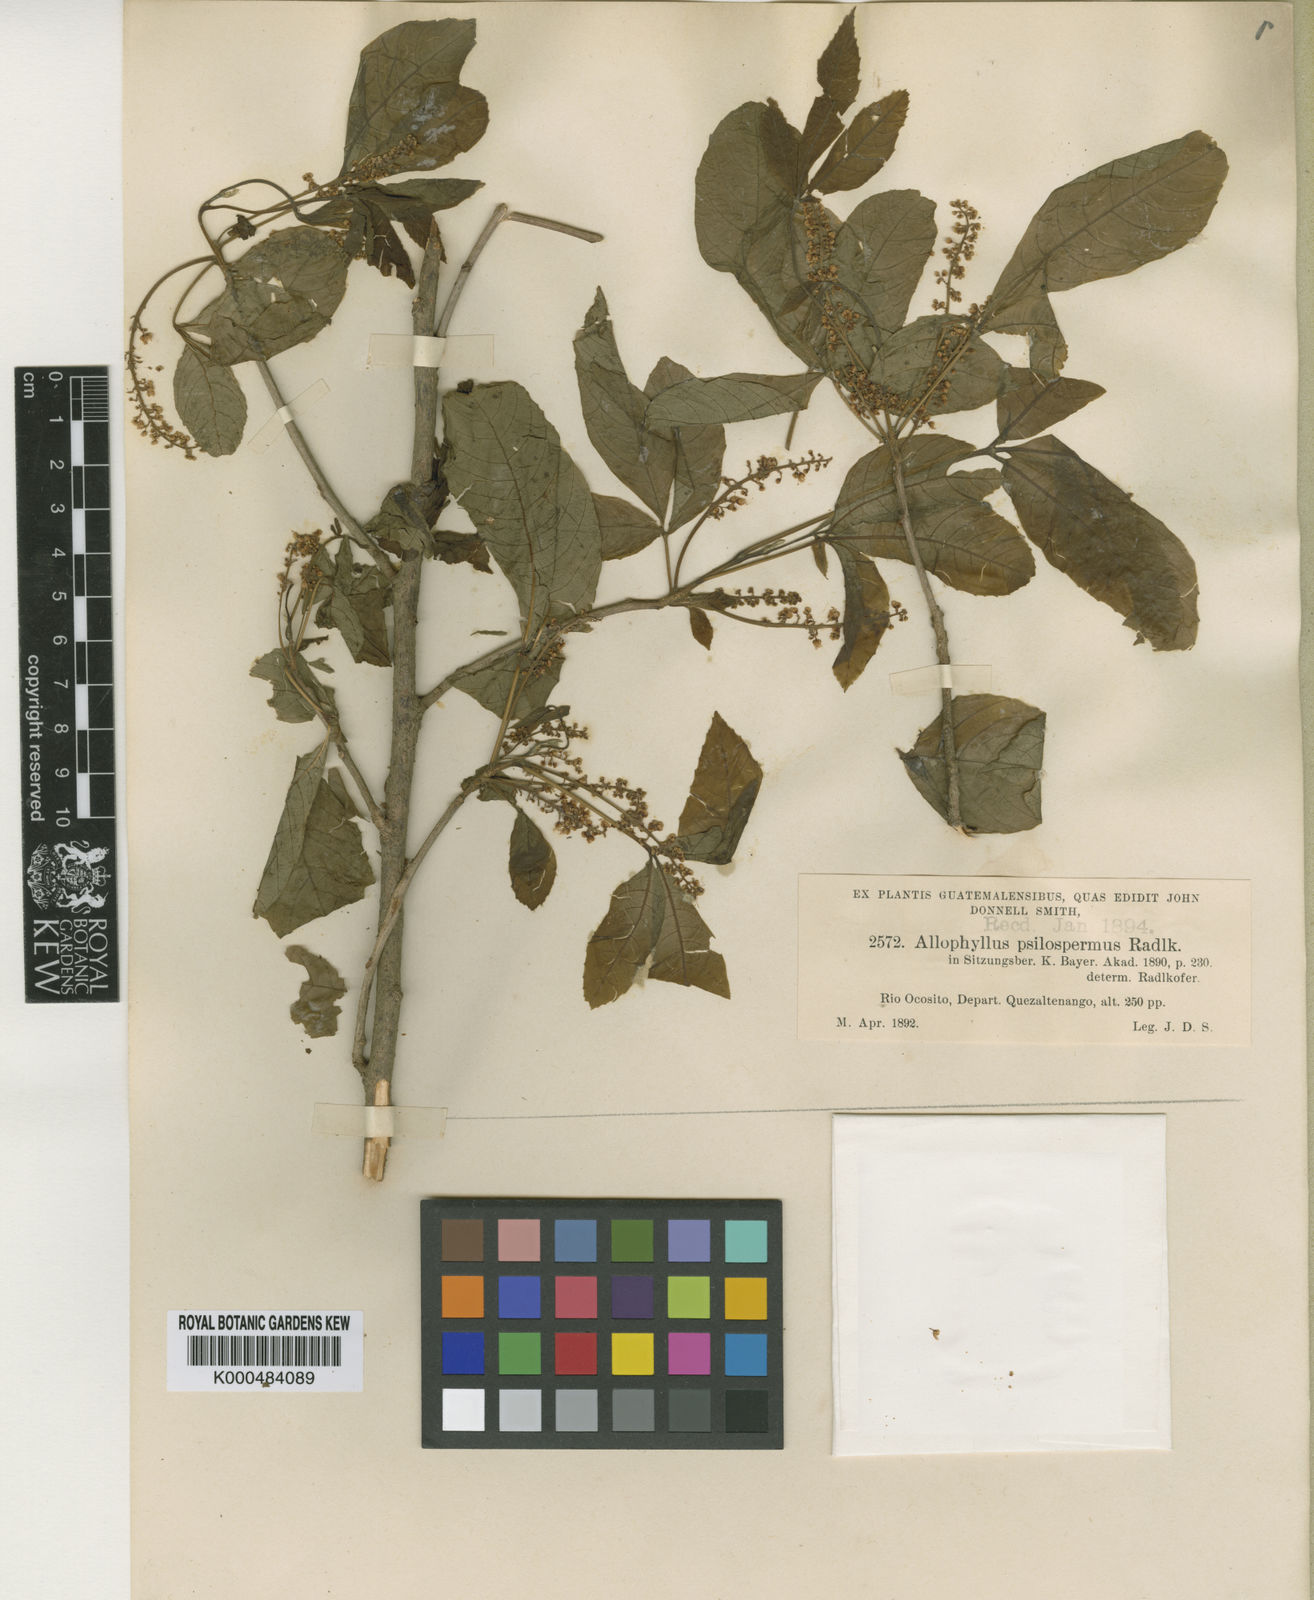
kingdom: Plantae
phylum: Tracheophyta
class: Magnoliopsida
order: Sapindales
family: Sapindaceae
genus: Allophylus
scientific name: Allophylus psilospermus
